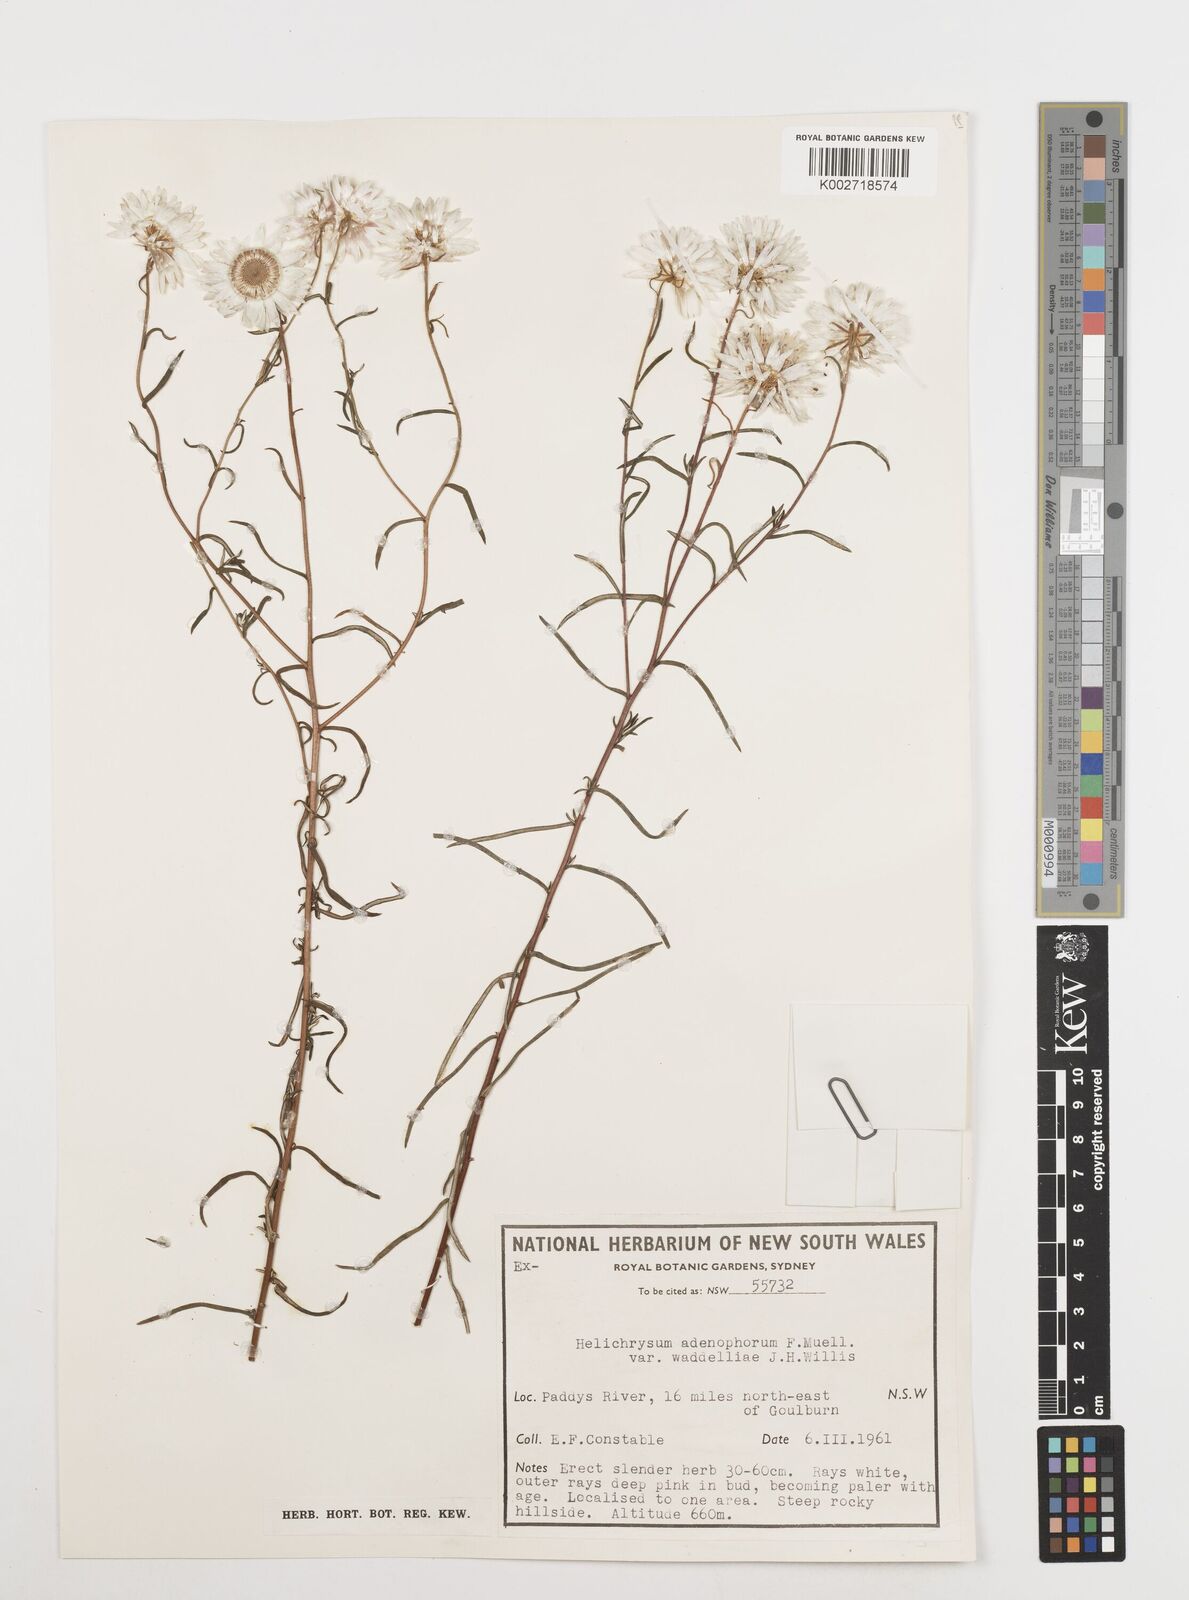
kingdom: Plantae
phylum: Tracheophyta
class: Magnoliopsida
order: Asterales
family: Asteraceae
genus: Coronidium
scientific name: Coronidium waddelliae
